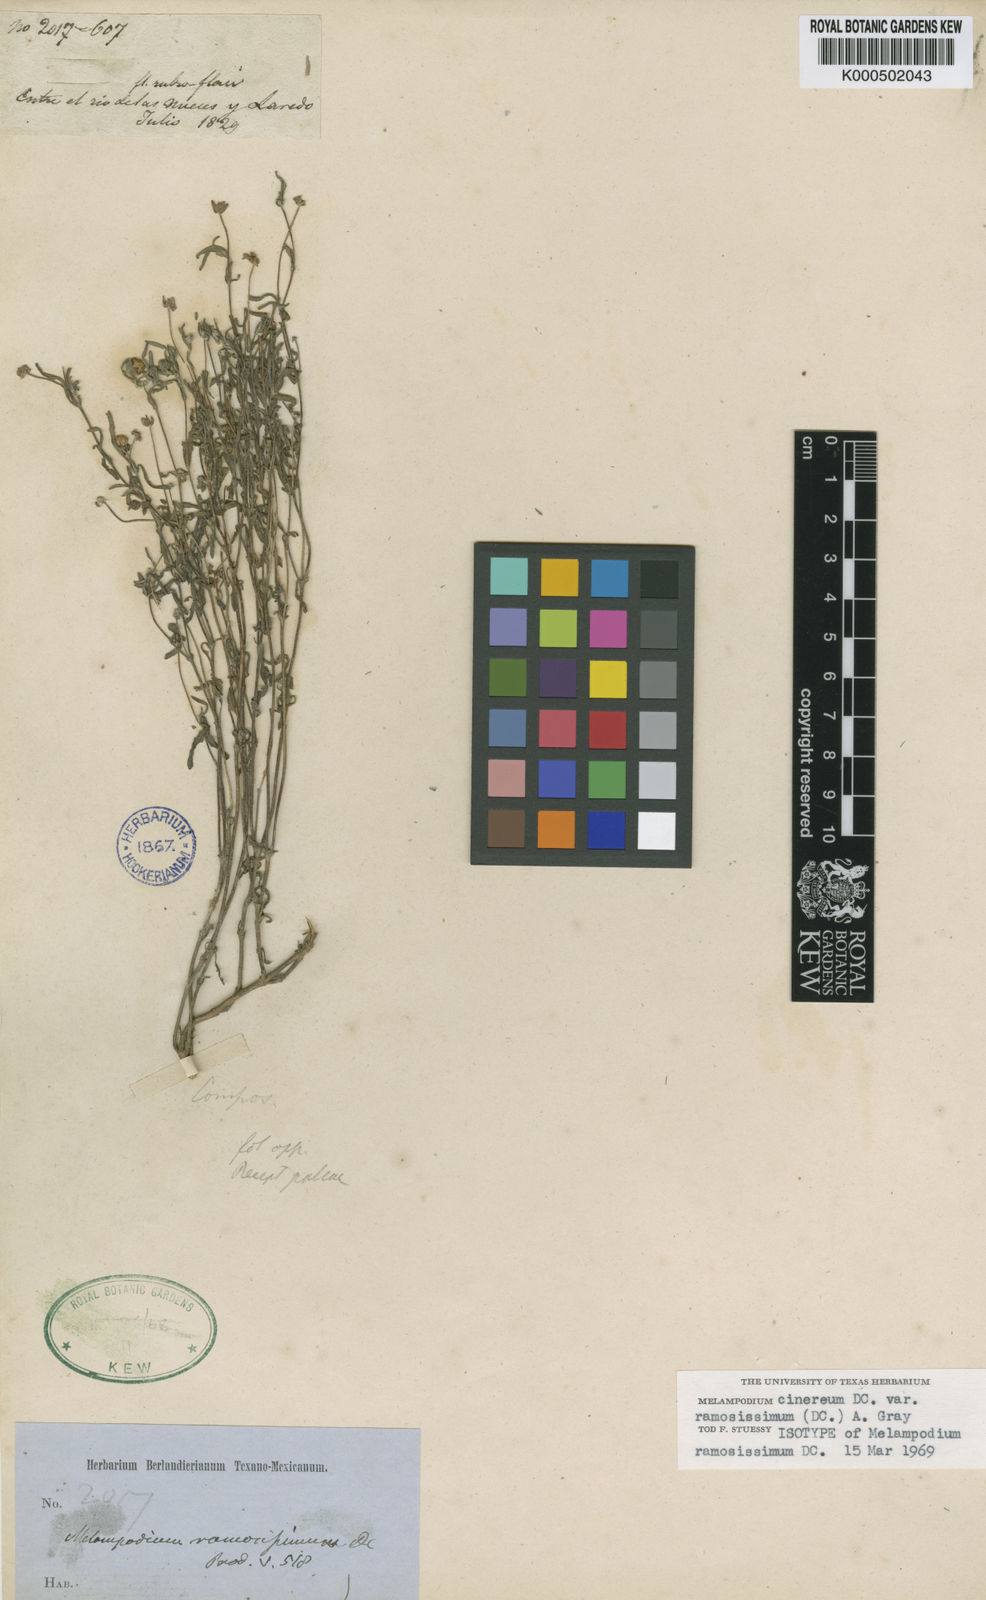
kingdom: Plantae
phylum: Tracheophyta
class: Magnoliopsida
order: Asterales
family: Asteraceae
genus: Melampodium
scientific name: Melampodium cinereum
